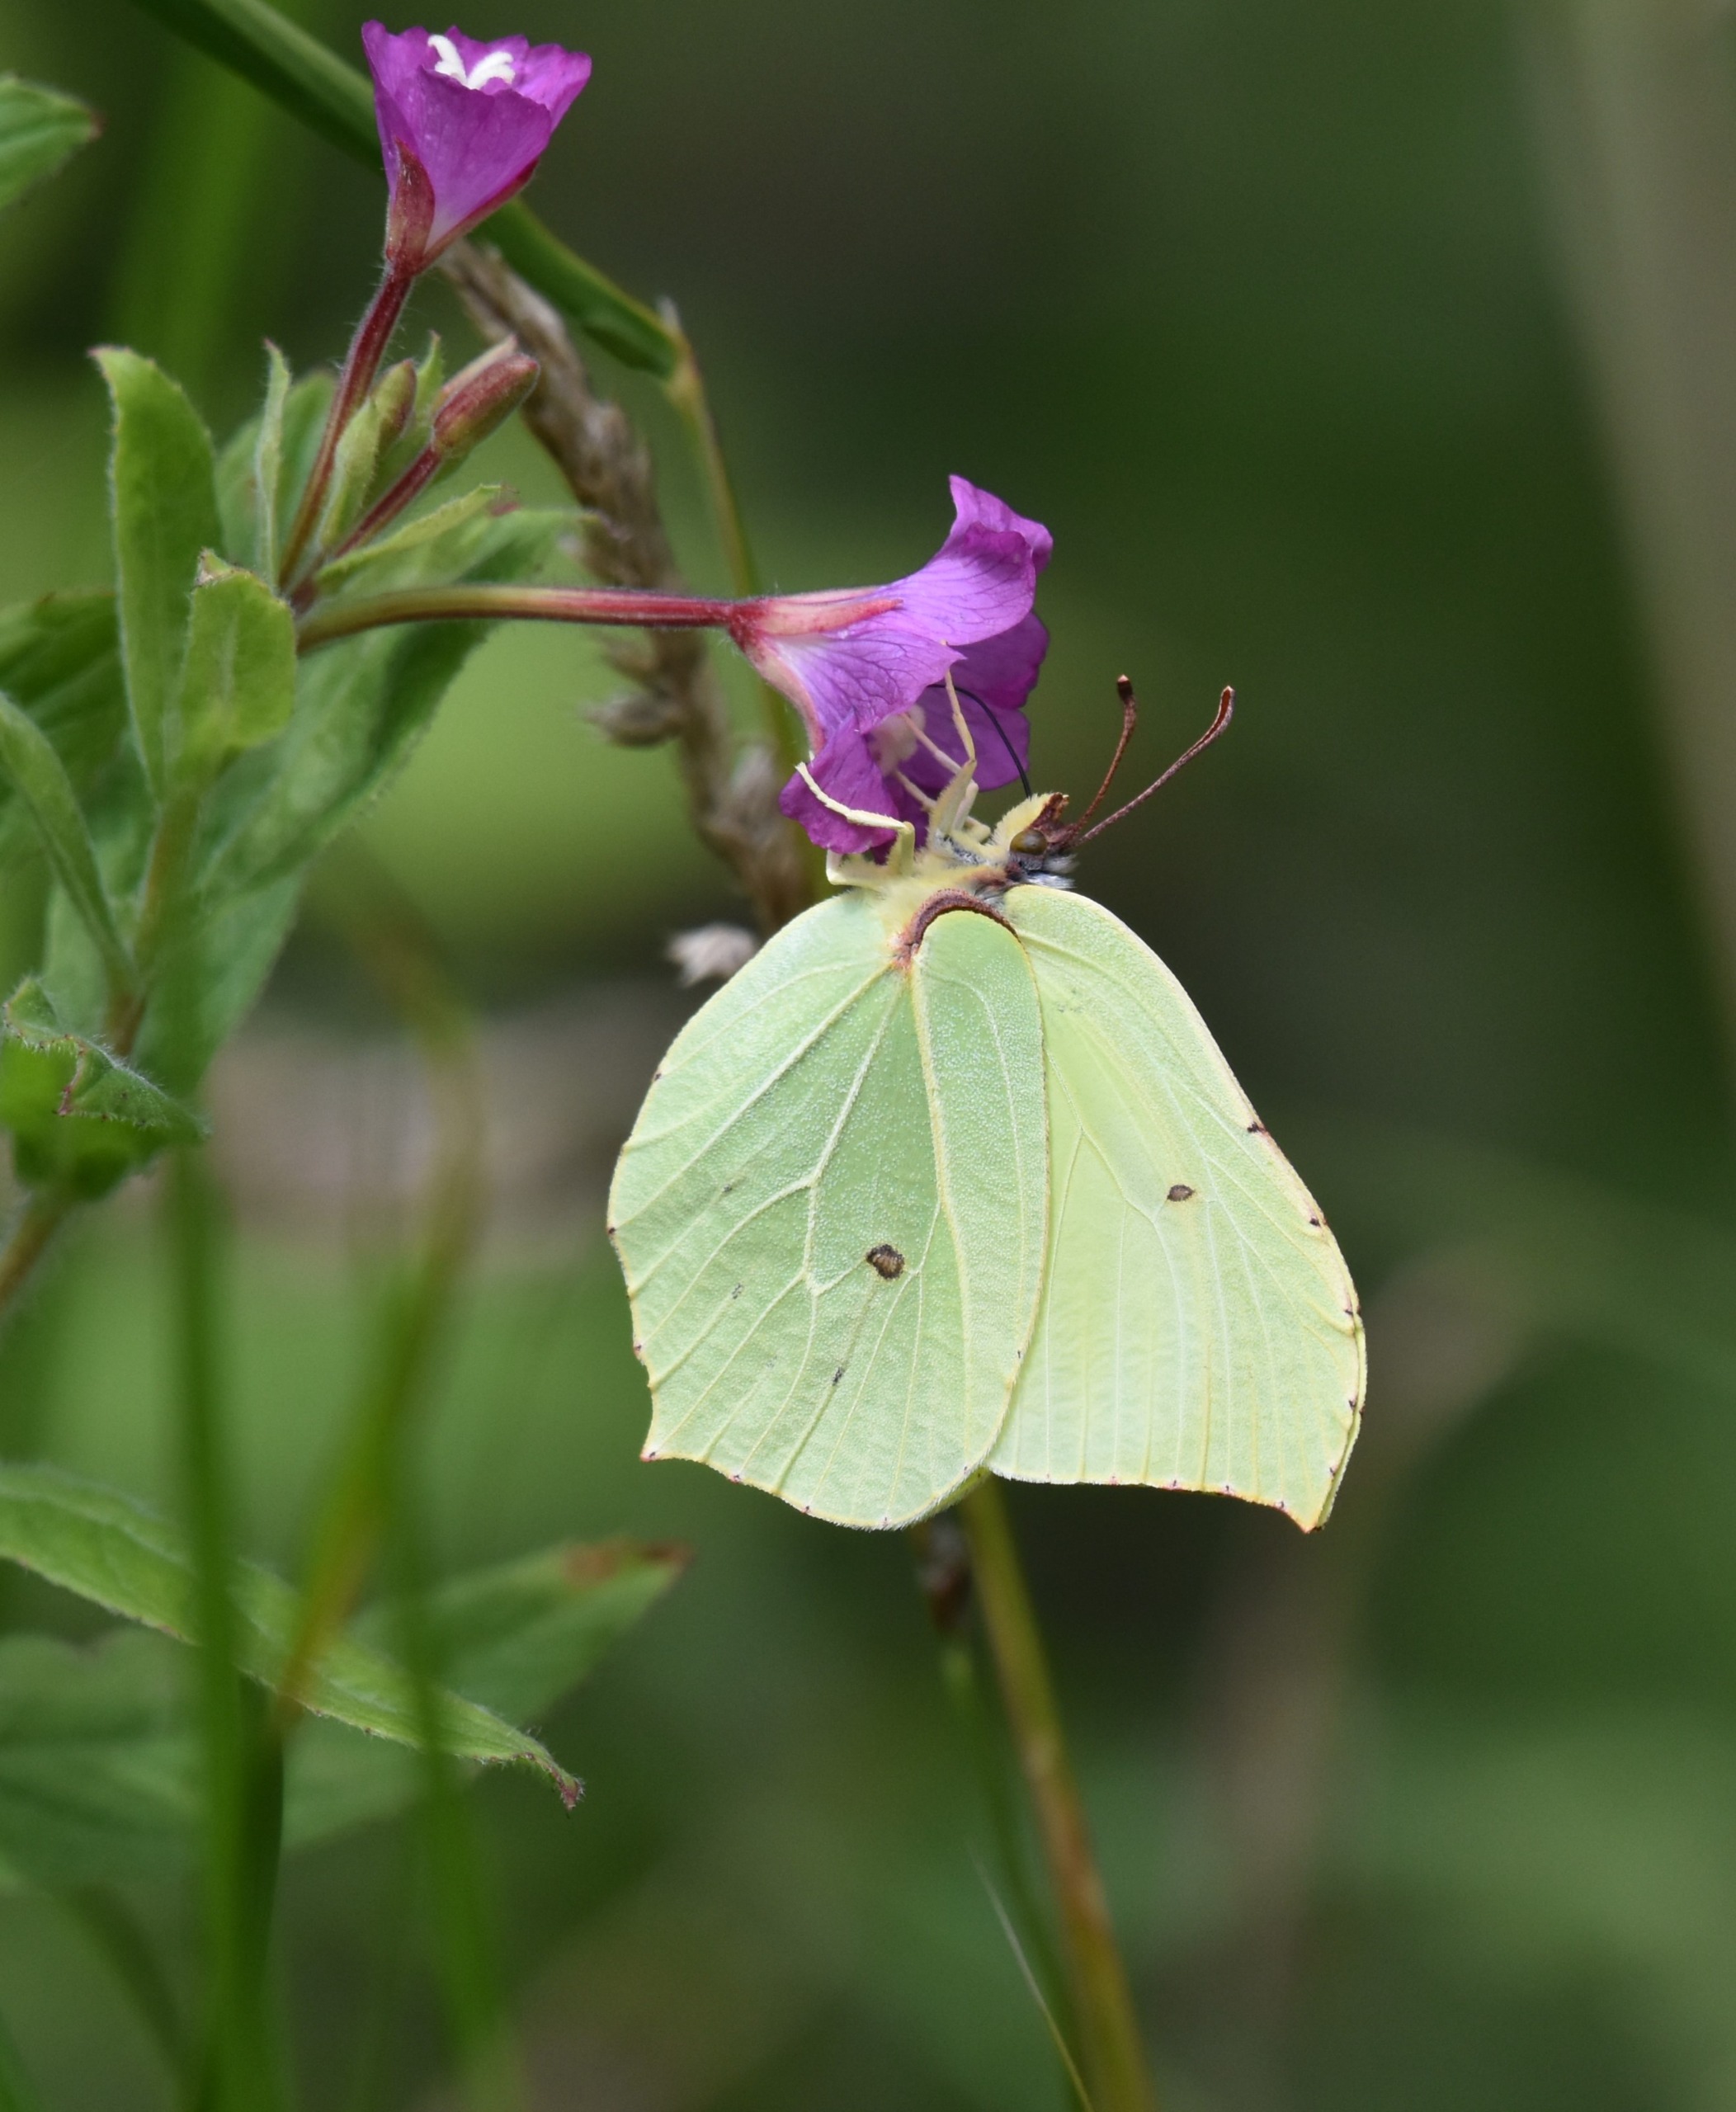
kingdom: Animalia
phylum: Arthropoda
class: Insecta
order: Lepidoptera
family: Pieridae
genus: Gonepteryx
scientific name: Gonepteryx rhamni
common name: Citronsommerfugl
